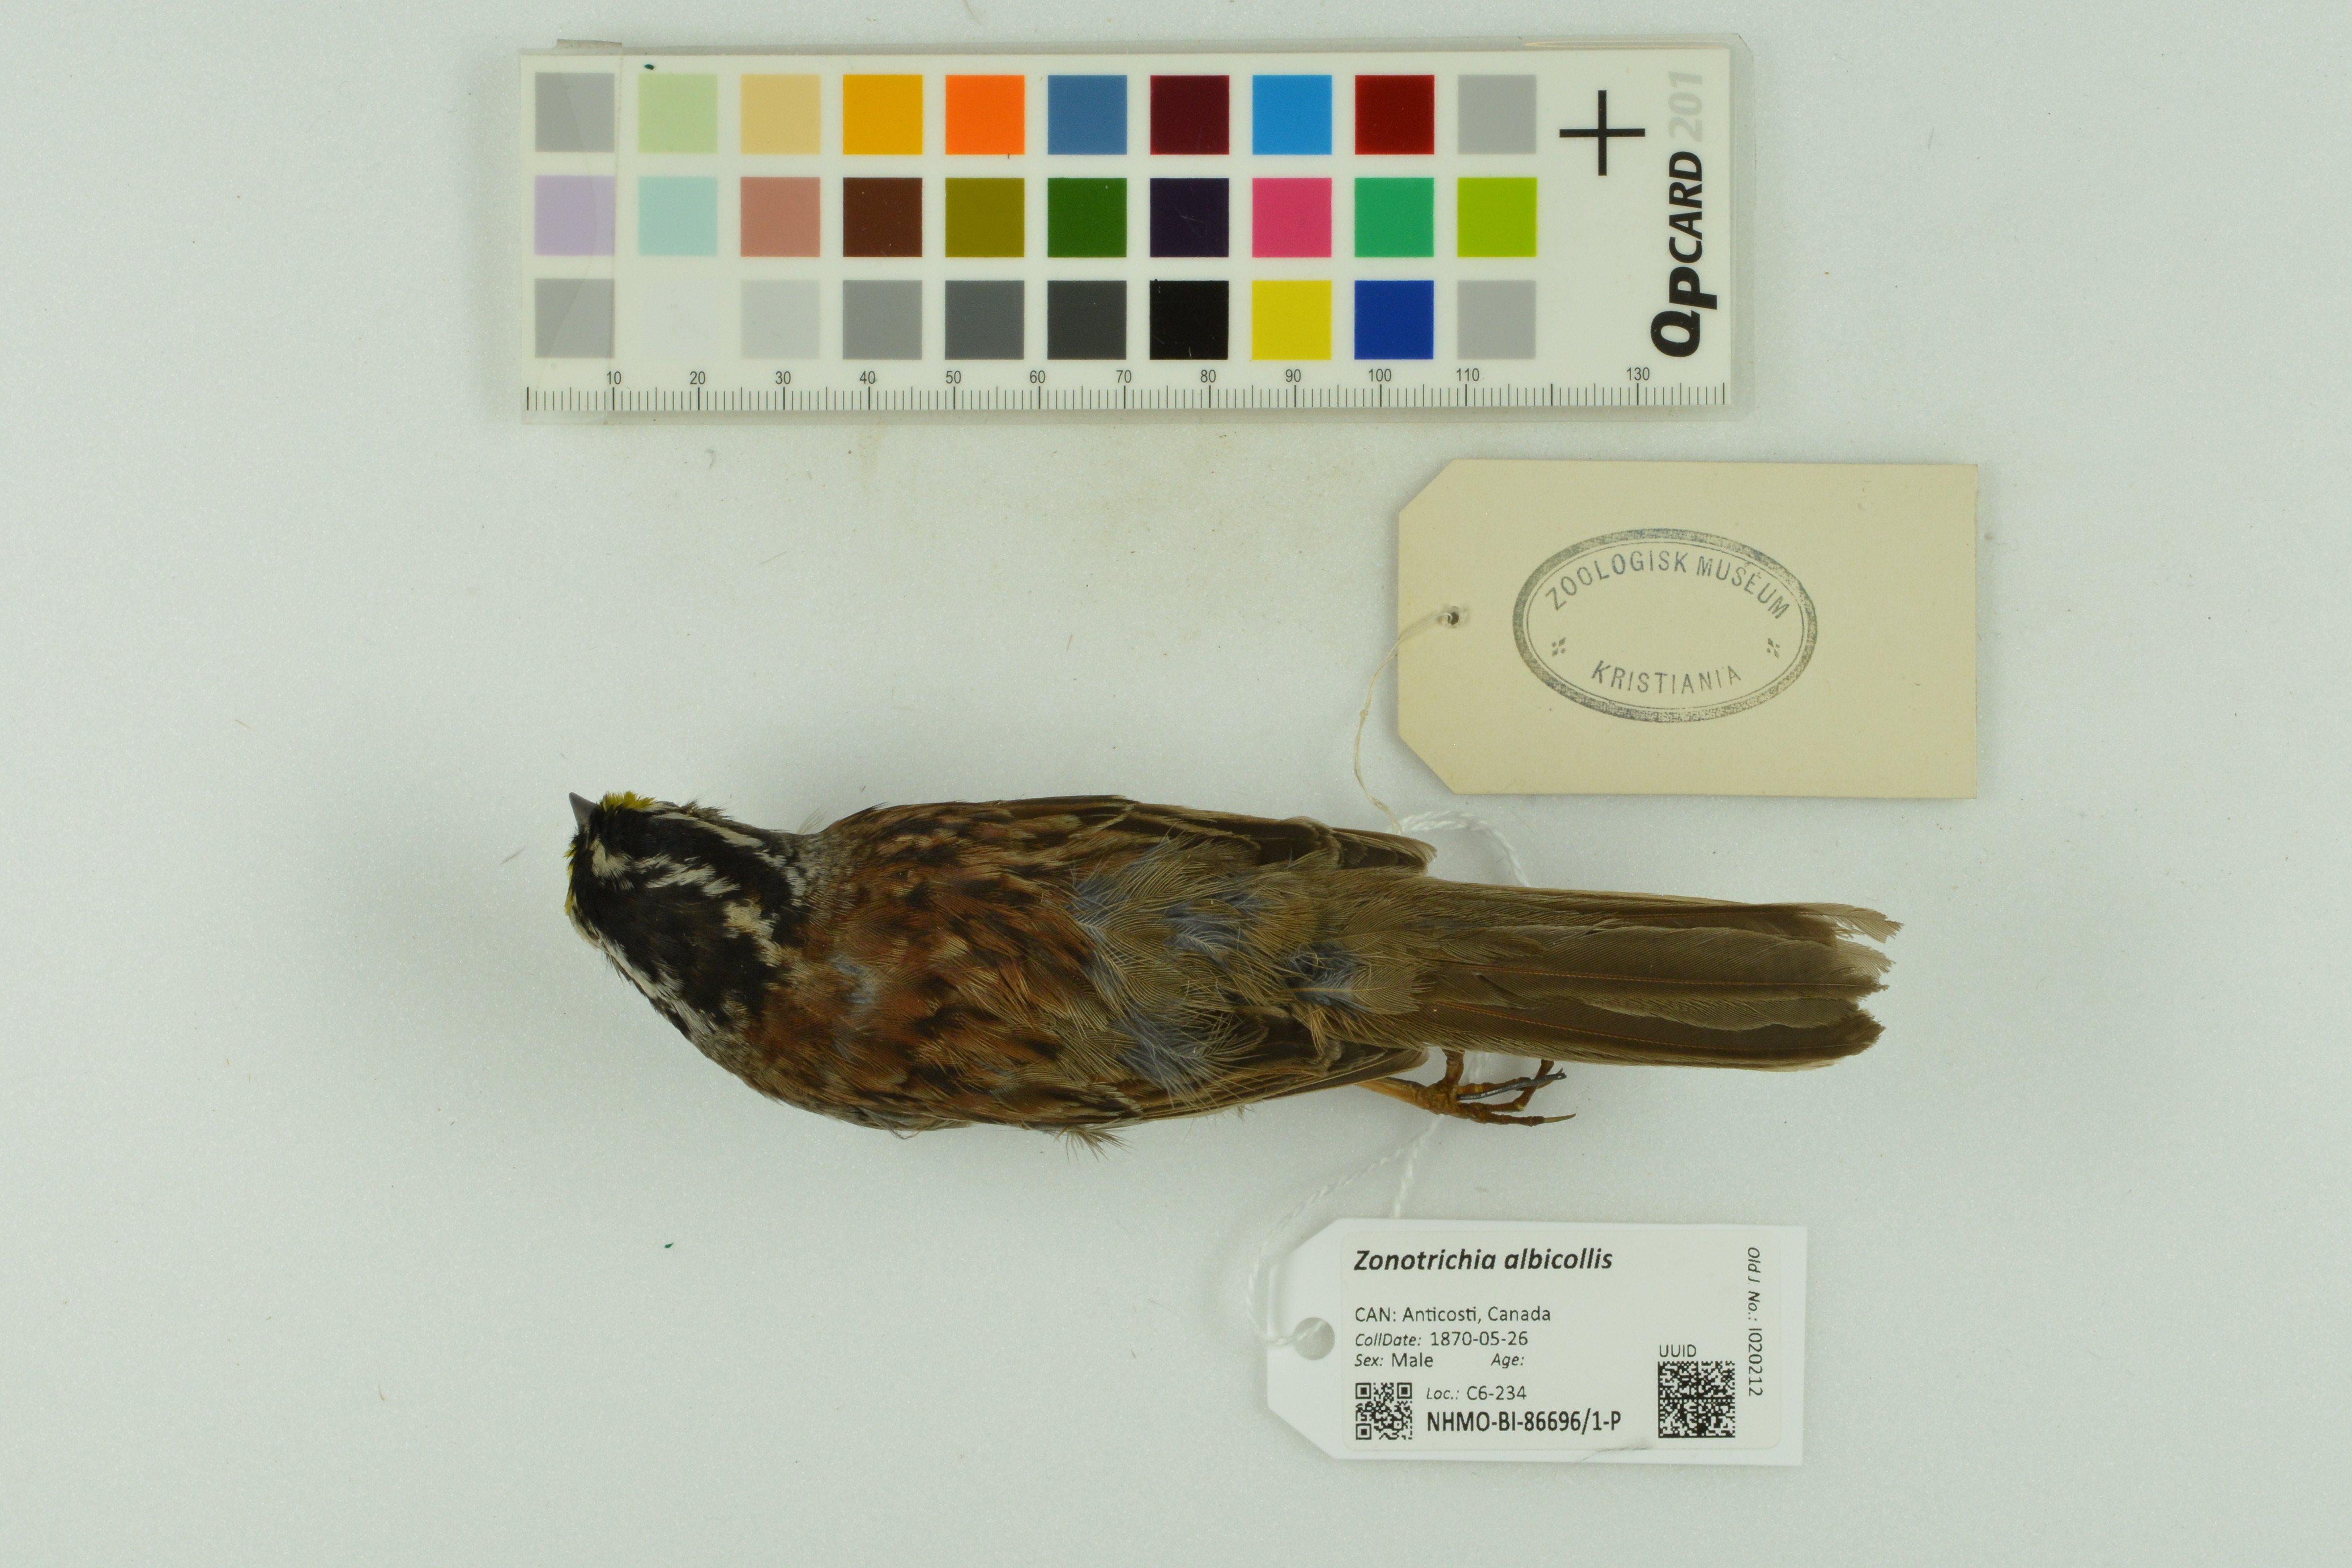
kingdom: Animalia
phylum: Chordata
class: Aves
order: Passeriformes
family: Passerellidae
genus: Zonotrichia
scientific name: Zonotrichia albicollis
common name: White-throated sparrow
